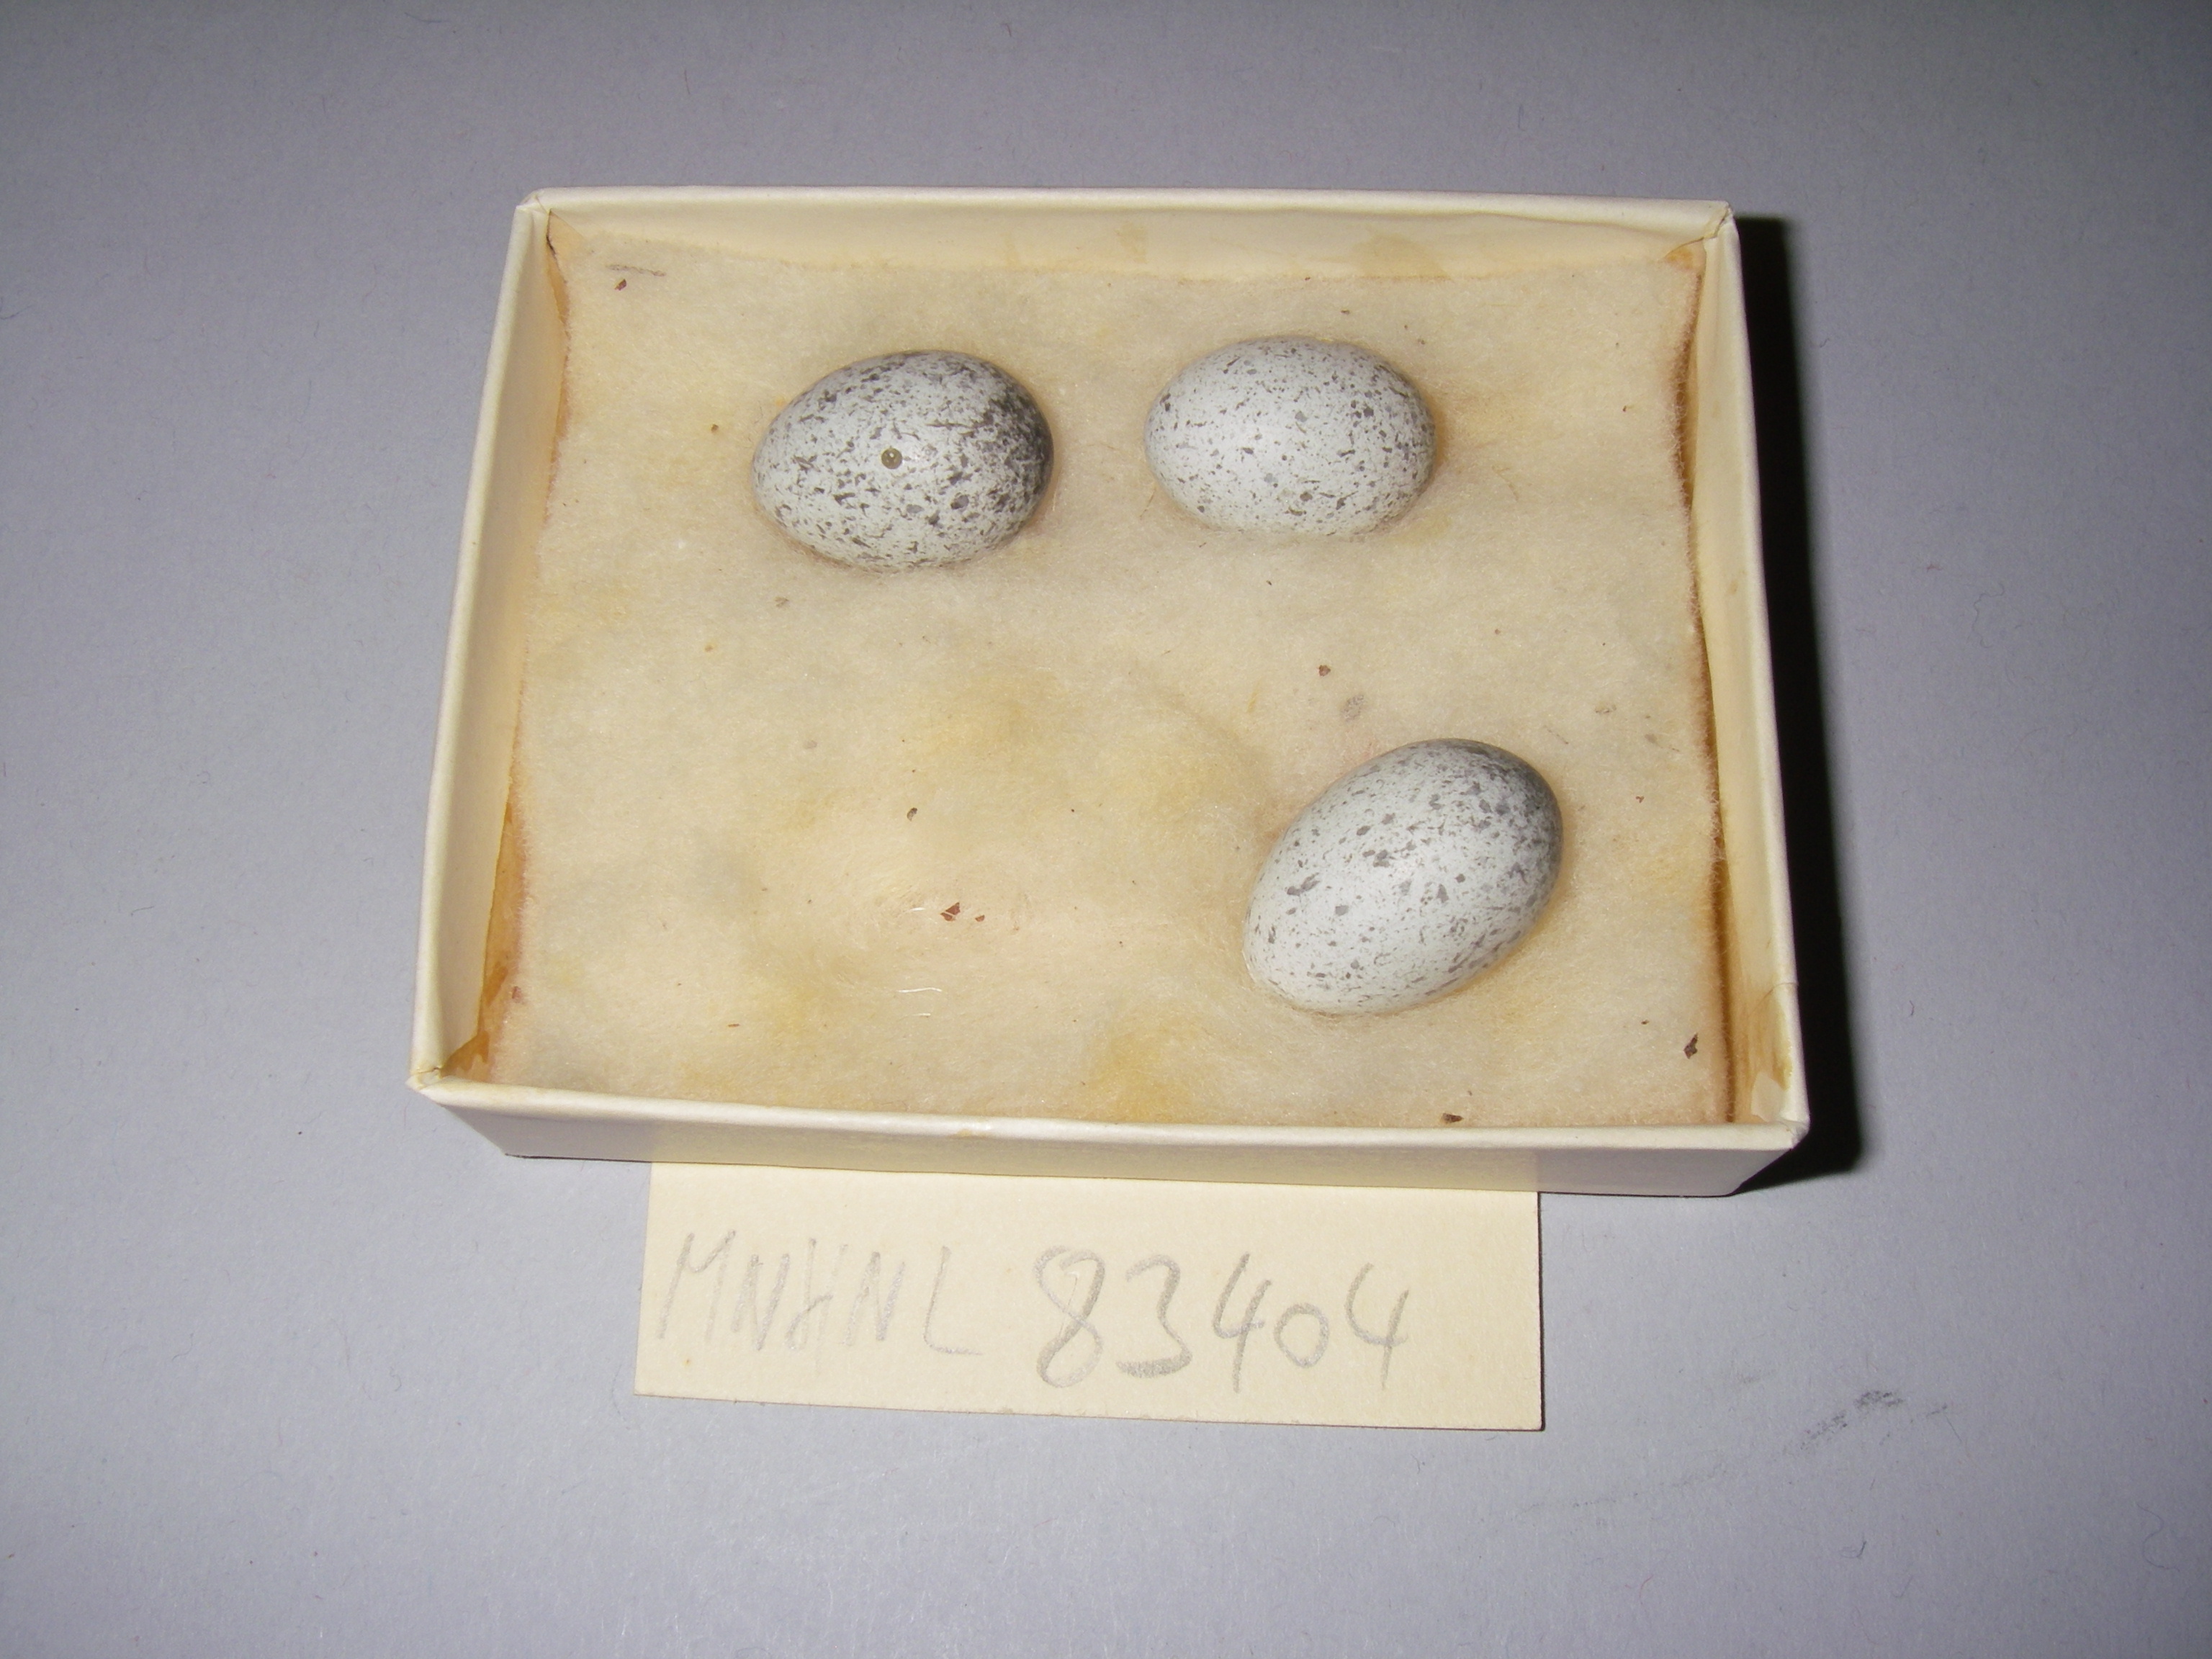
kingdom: Animalia
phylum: Chordata
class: Aves
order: Passeriformes
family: Passeridae
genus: Passer
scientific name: Passer domesticus
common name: House sparrow
